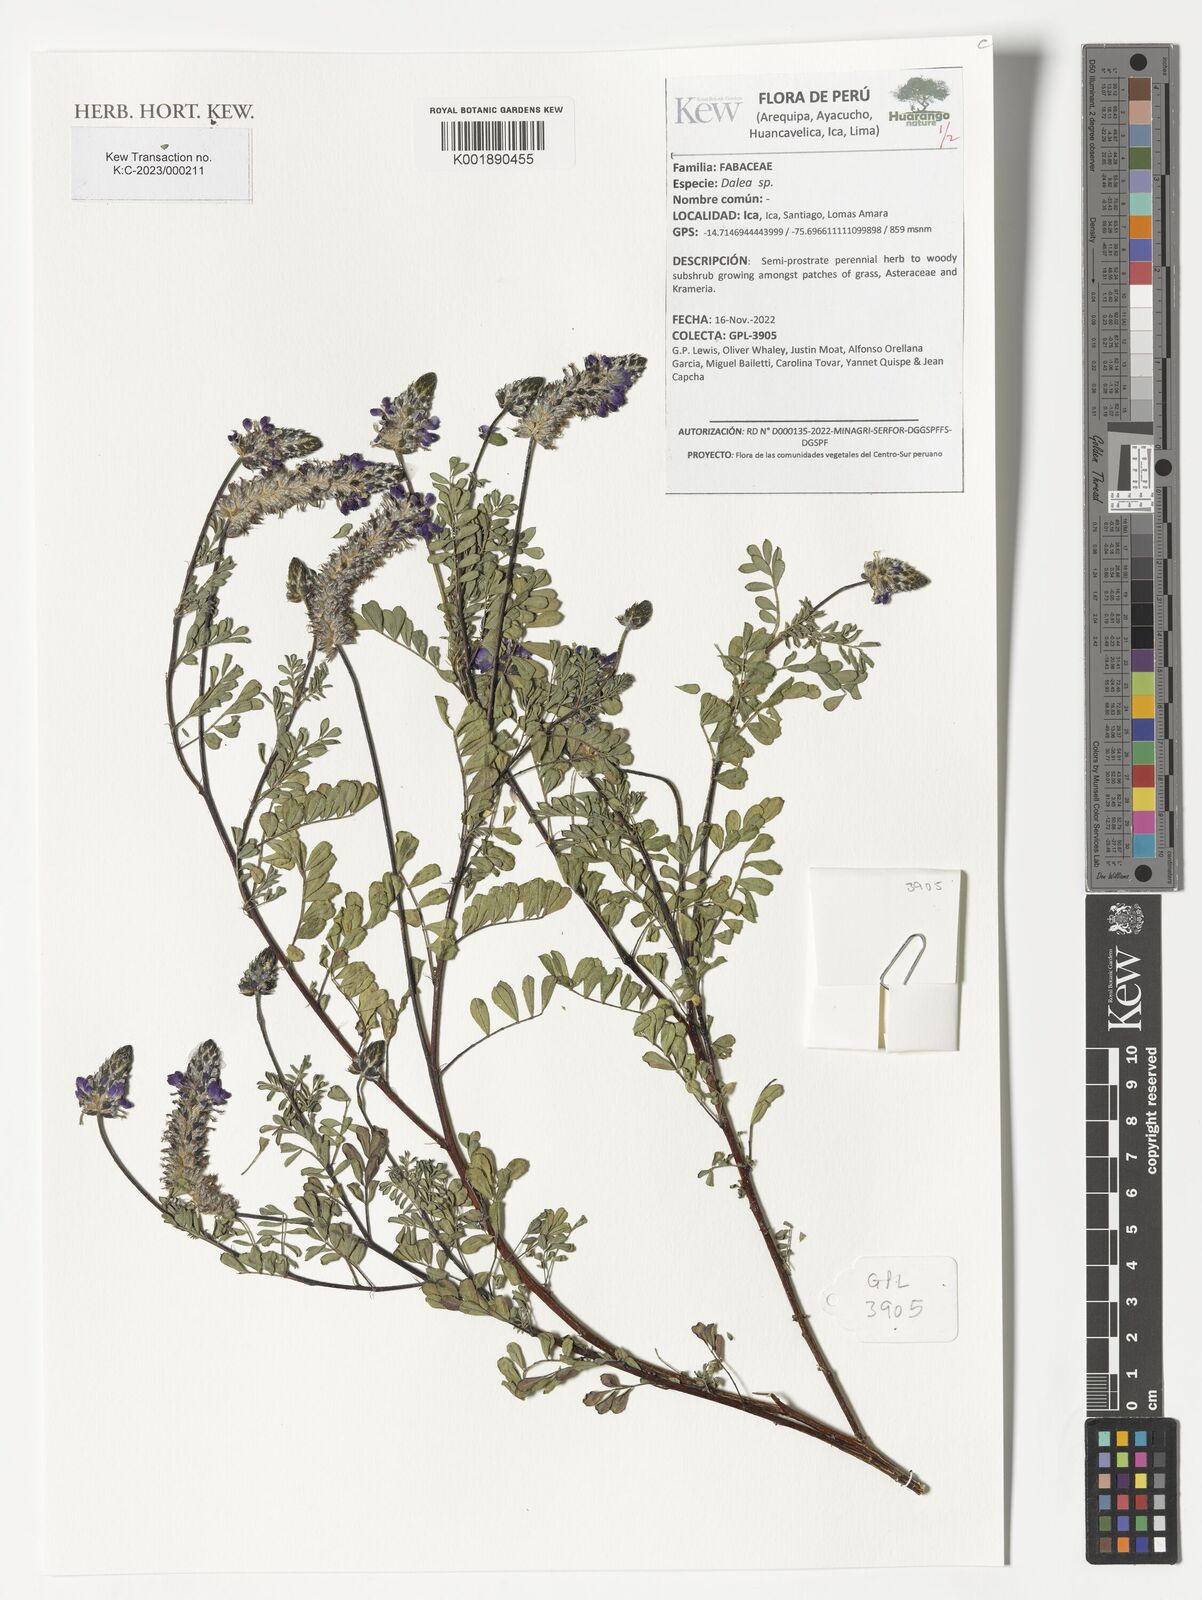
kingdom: Plantae
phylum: Tracheophyta
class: Magnoliopsida
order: Fabales
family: Fabaceae
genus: Dalea
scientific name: Dalea
